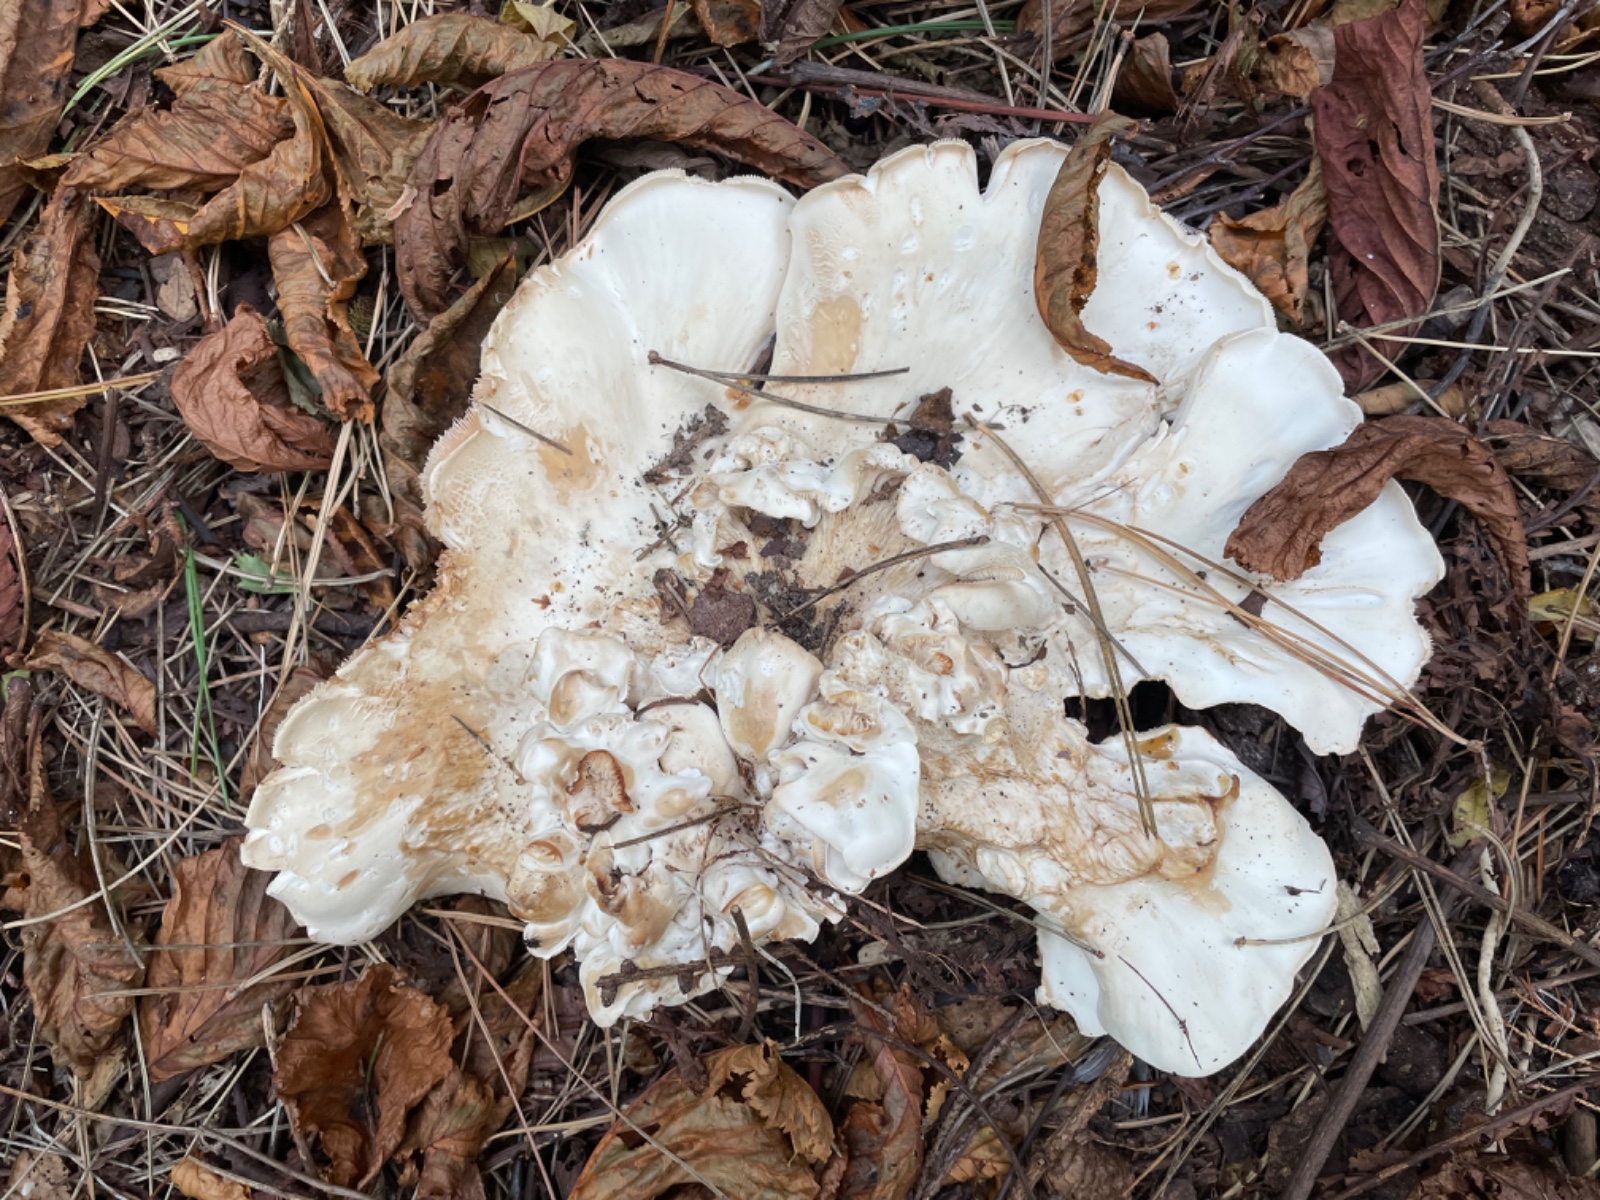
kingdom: Fungi
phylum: Basidiomycota
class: Agaricomycetes
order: Agaricales
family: Tricholomataceae
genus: Aspropaxillus
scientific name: Aspropaxillus giganteus
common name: kæmpe-tragtridderhat
